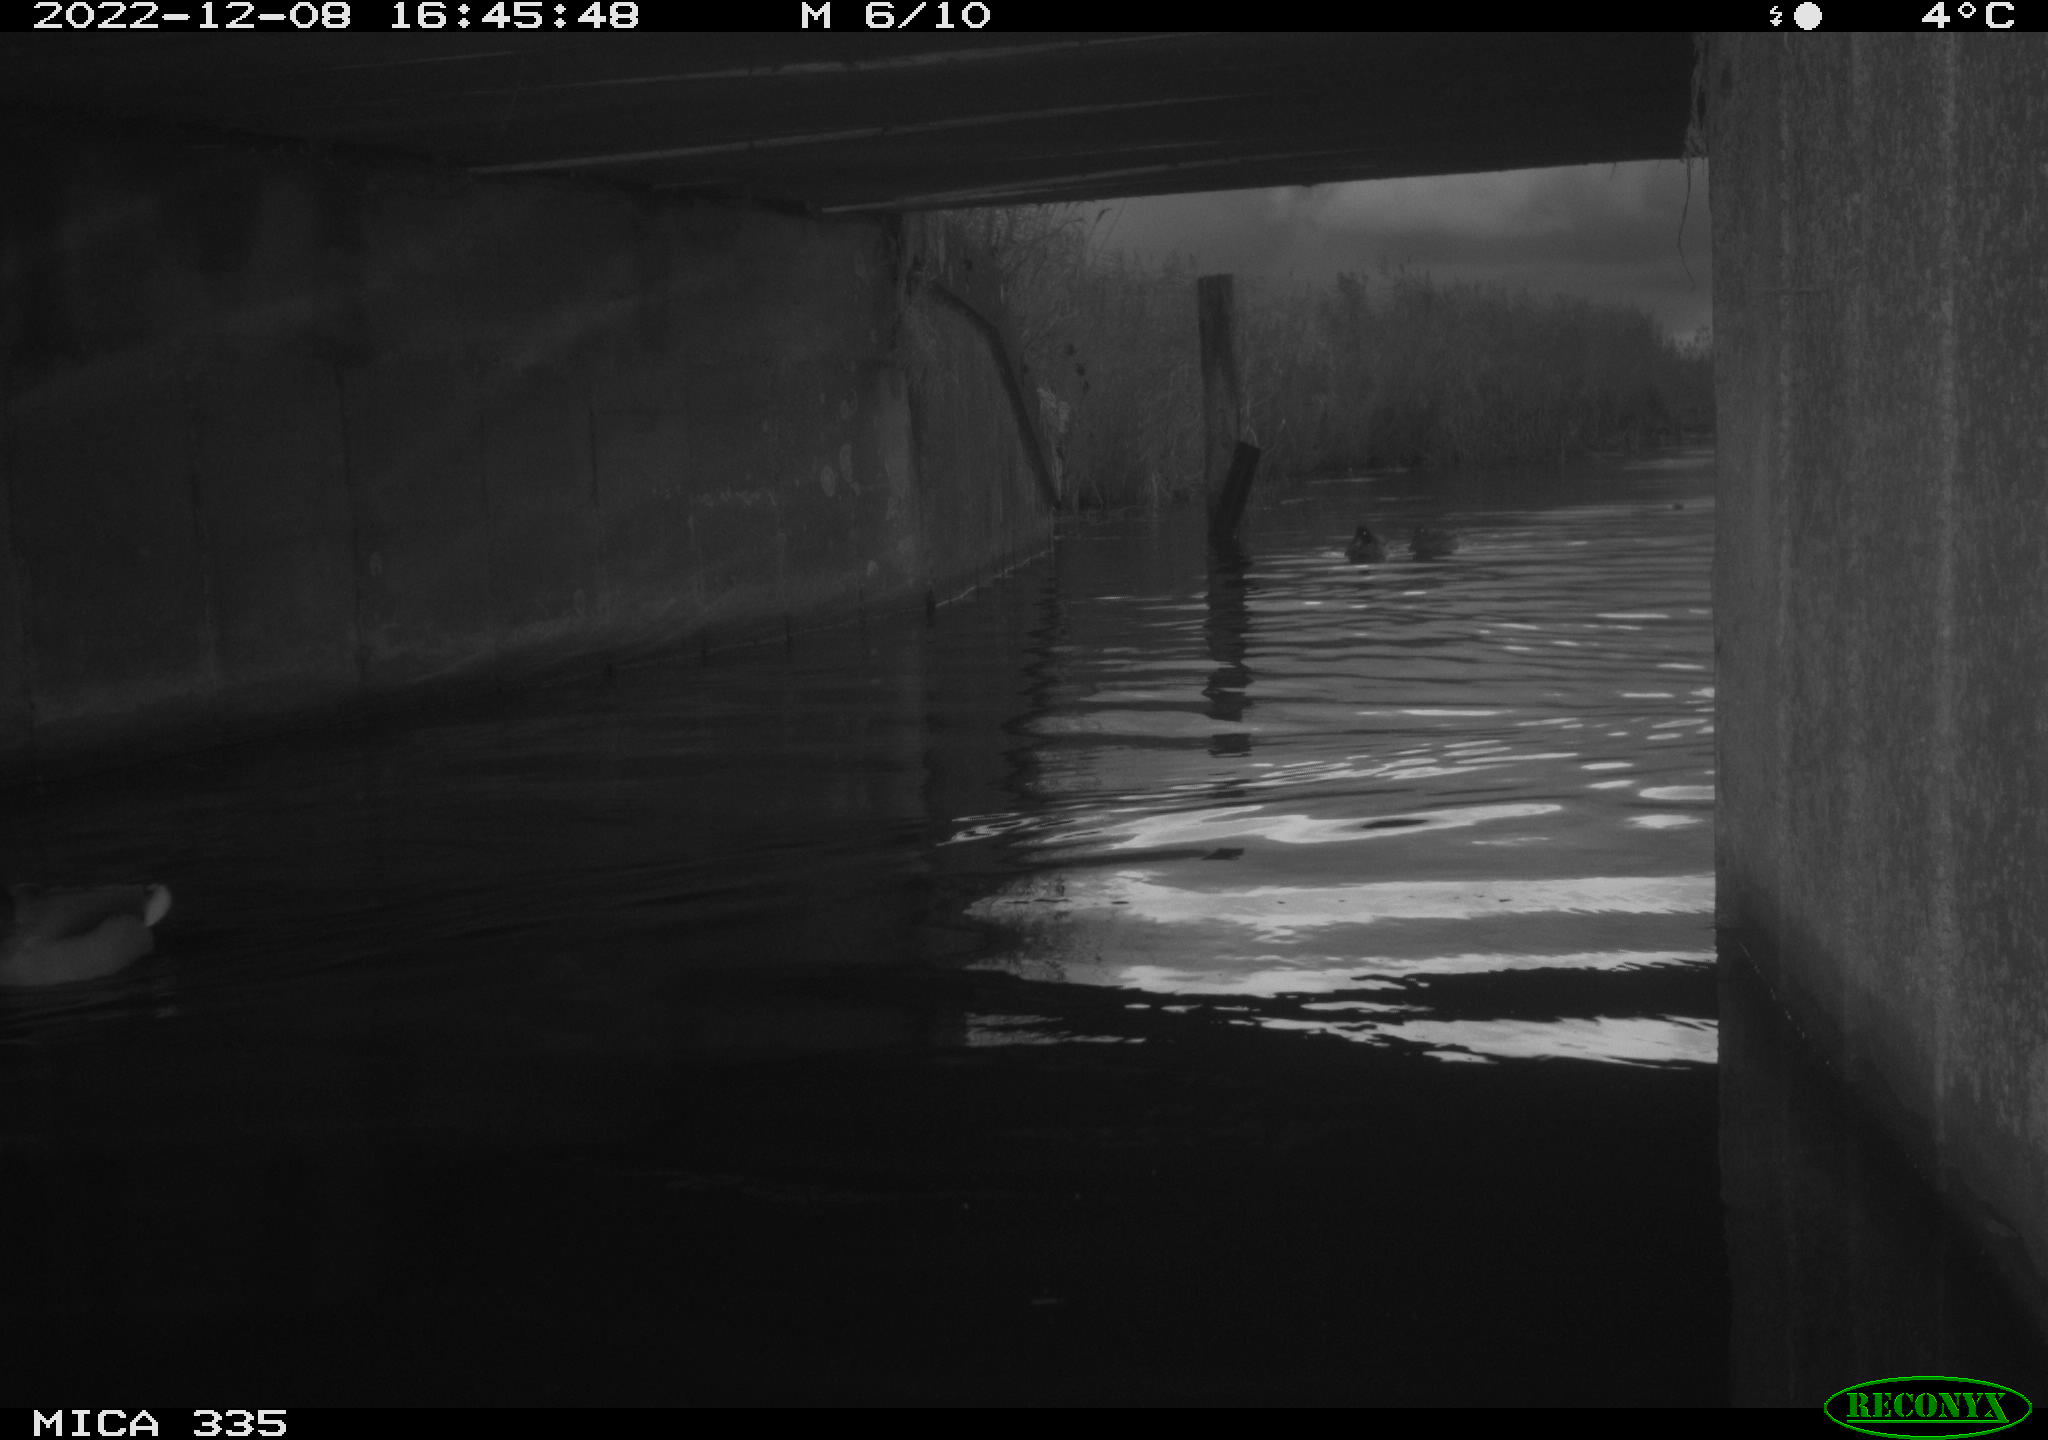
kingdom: Animalia
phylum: Chordata
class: Aves
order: Anseriformes
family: Anatidae
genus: Anas
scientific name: Anas
